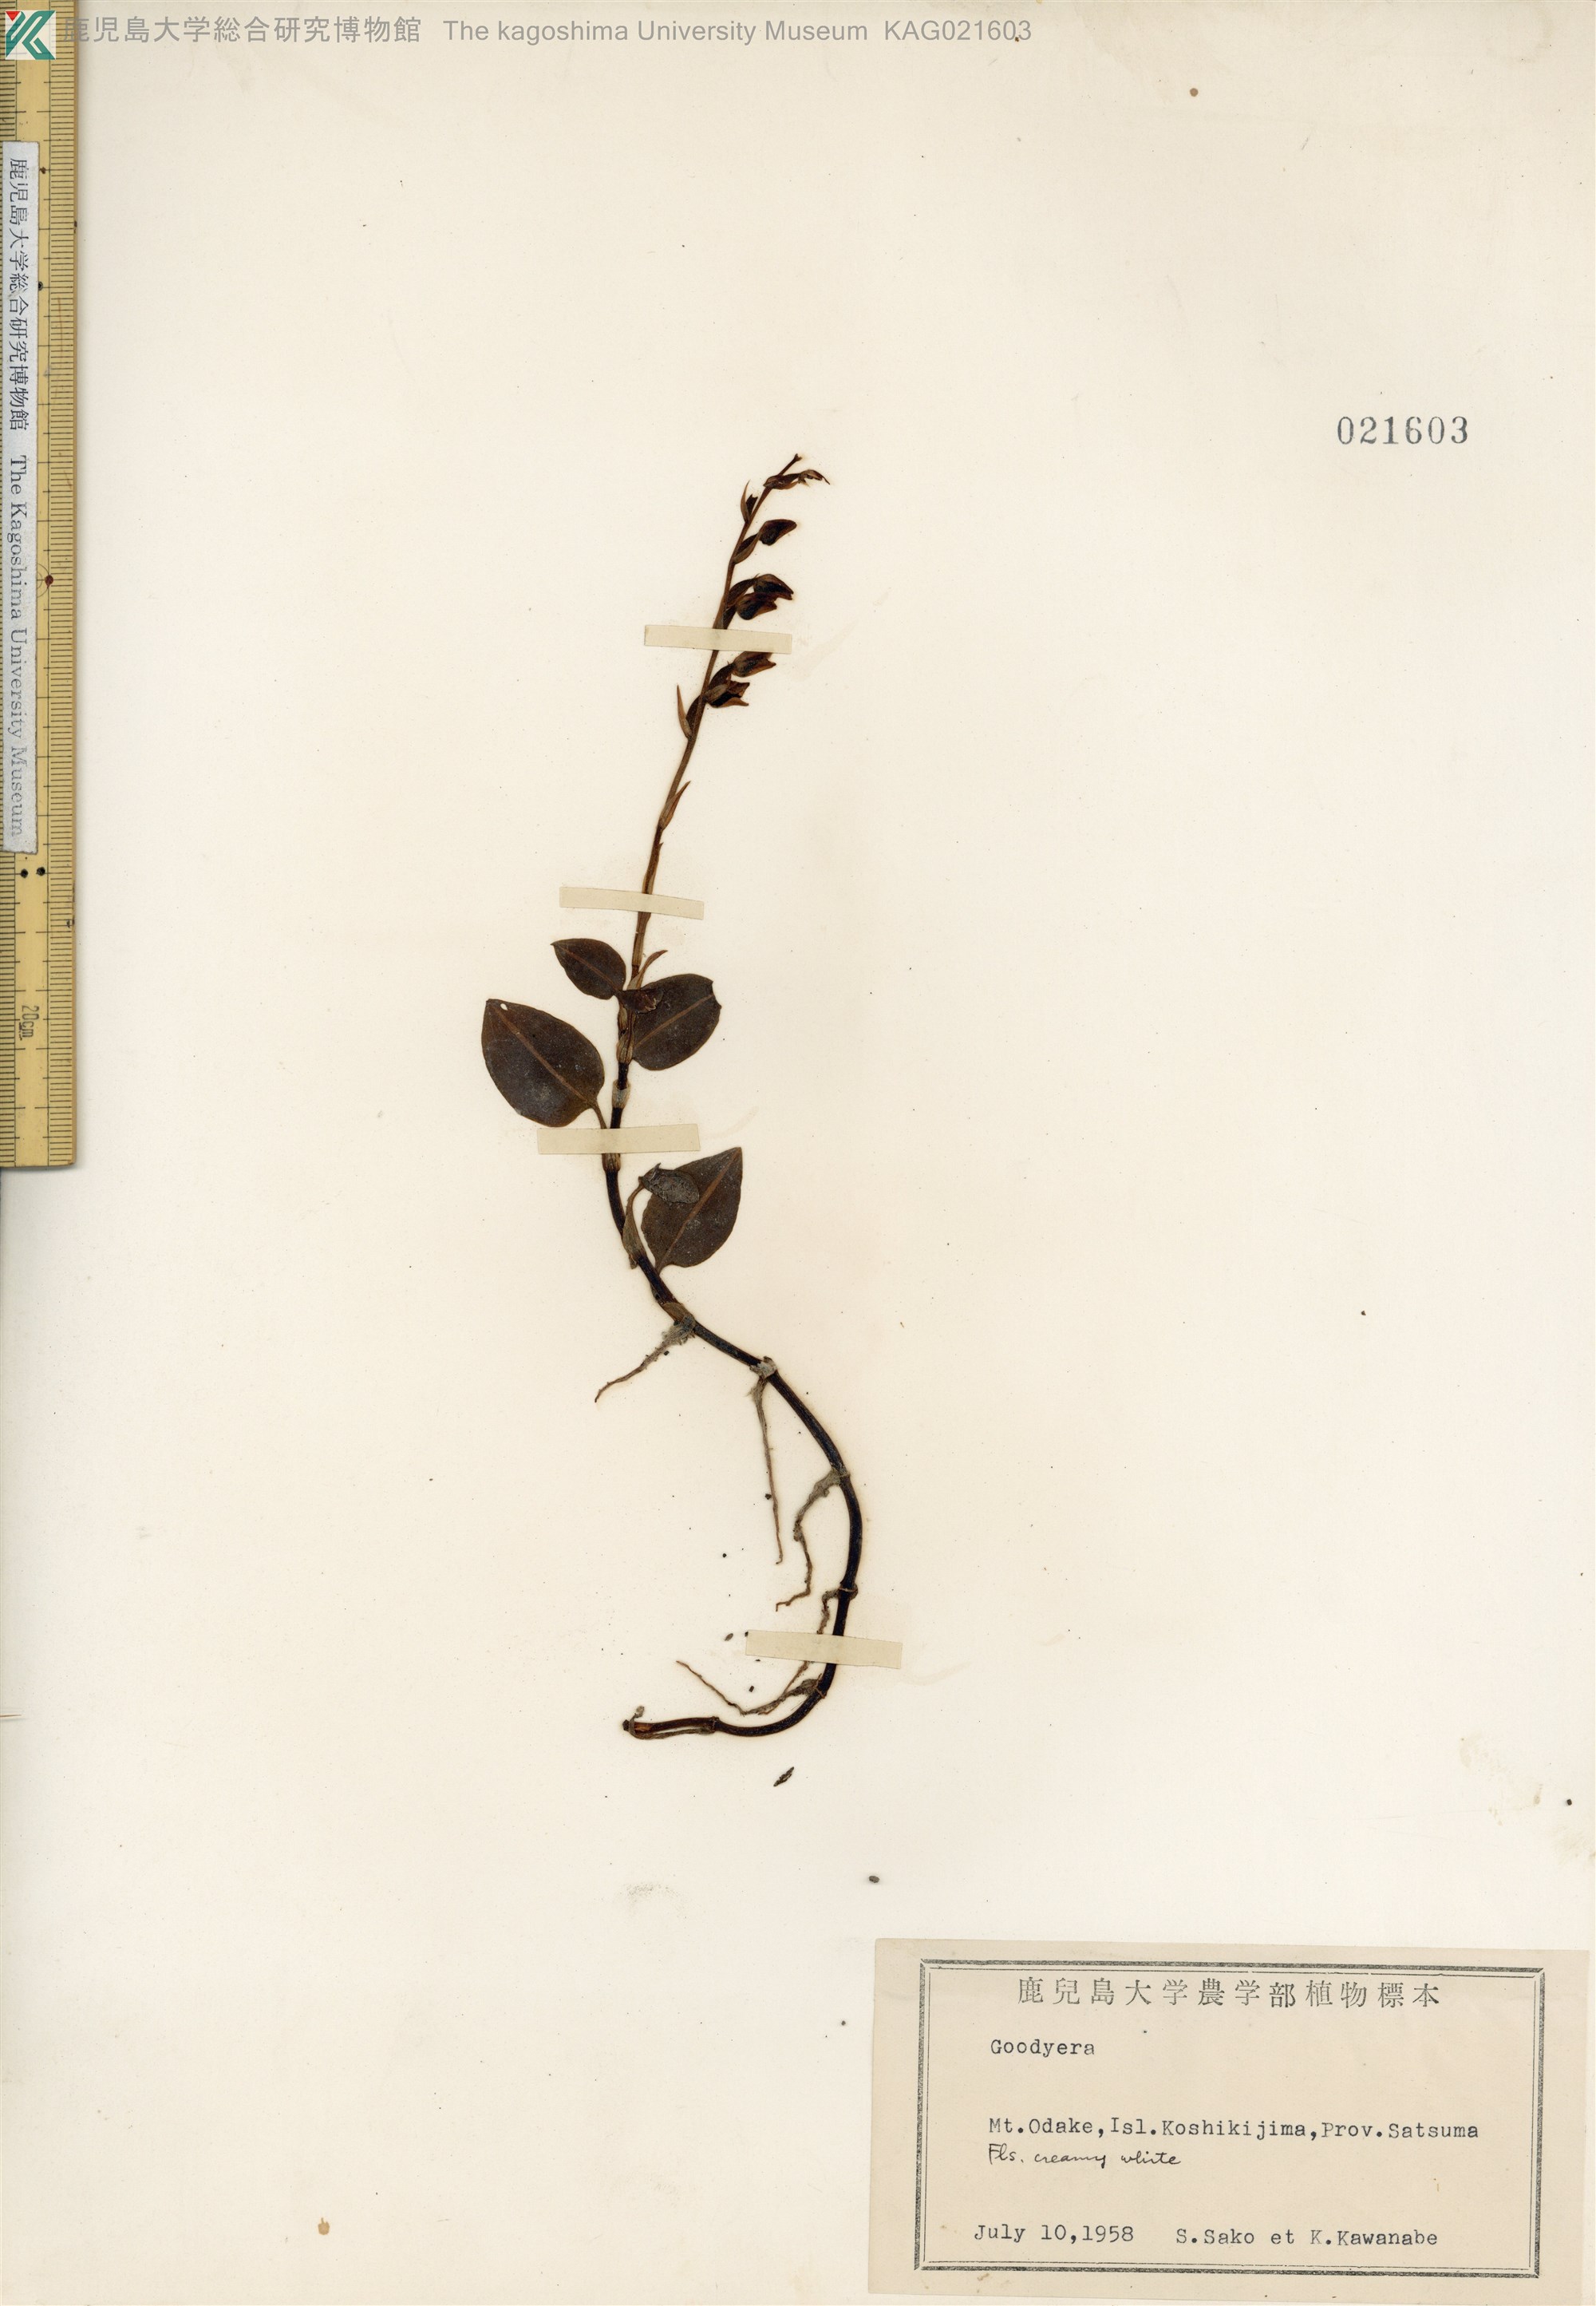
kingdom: Plantae
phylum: Tracheophyta
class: Liliopsida
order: Asparagales
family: Orchidaceae
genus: Goodyera
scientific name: Goodyera velutina
